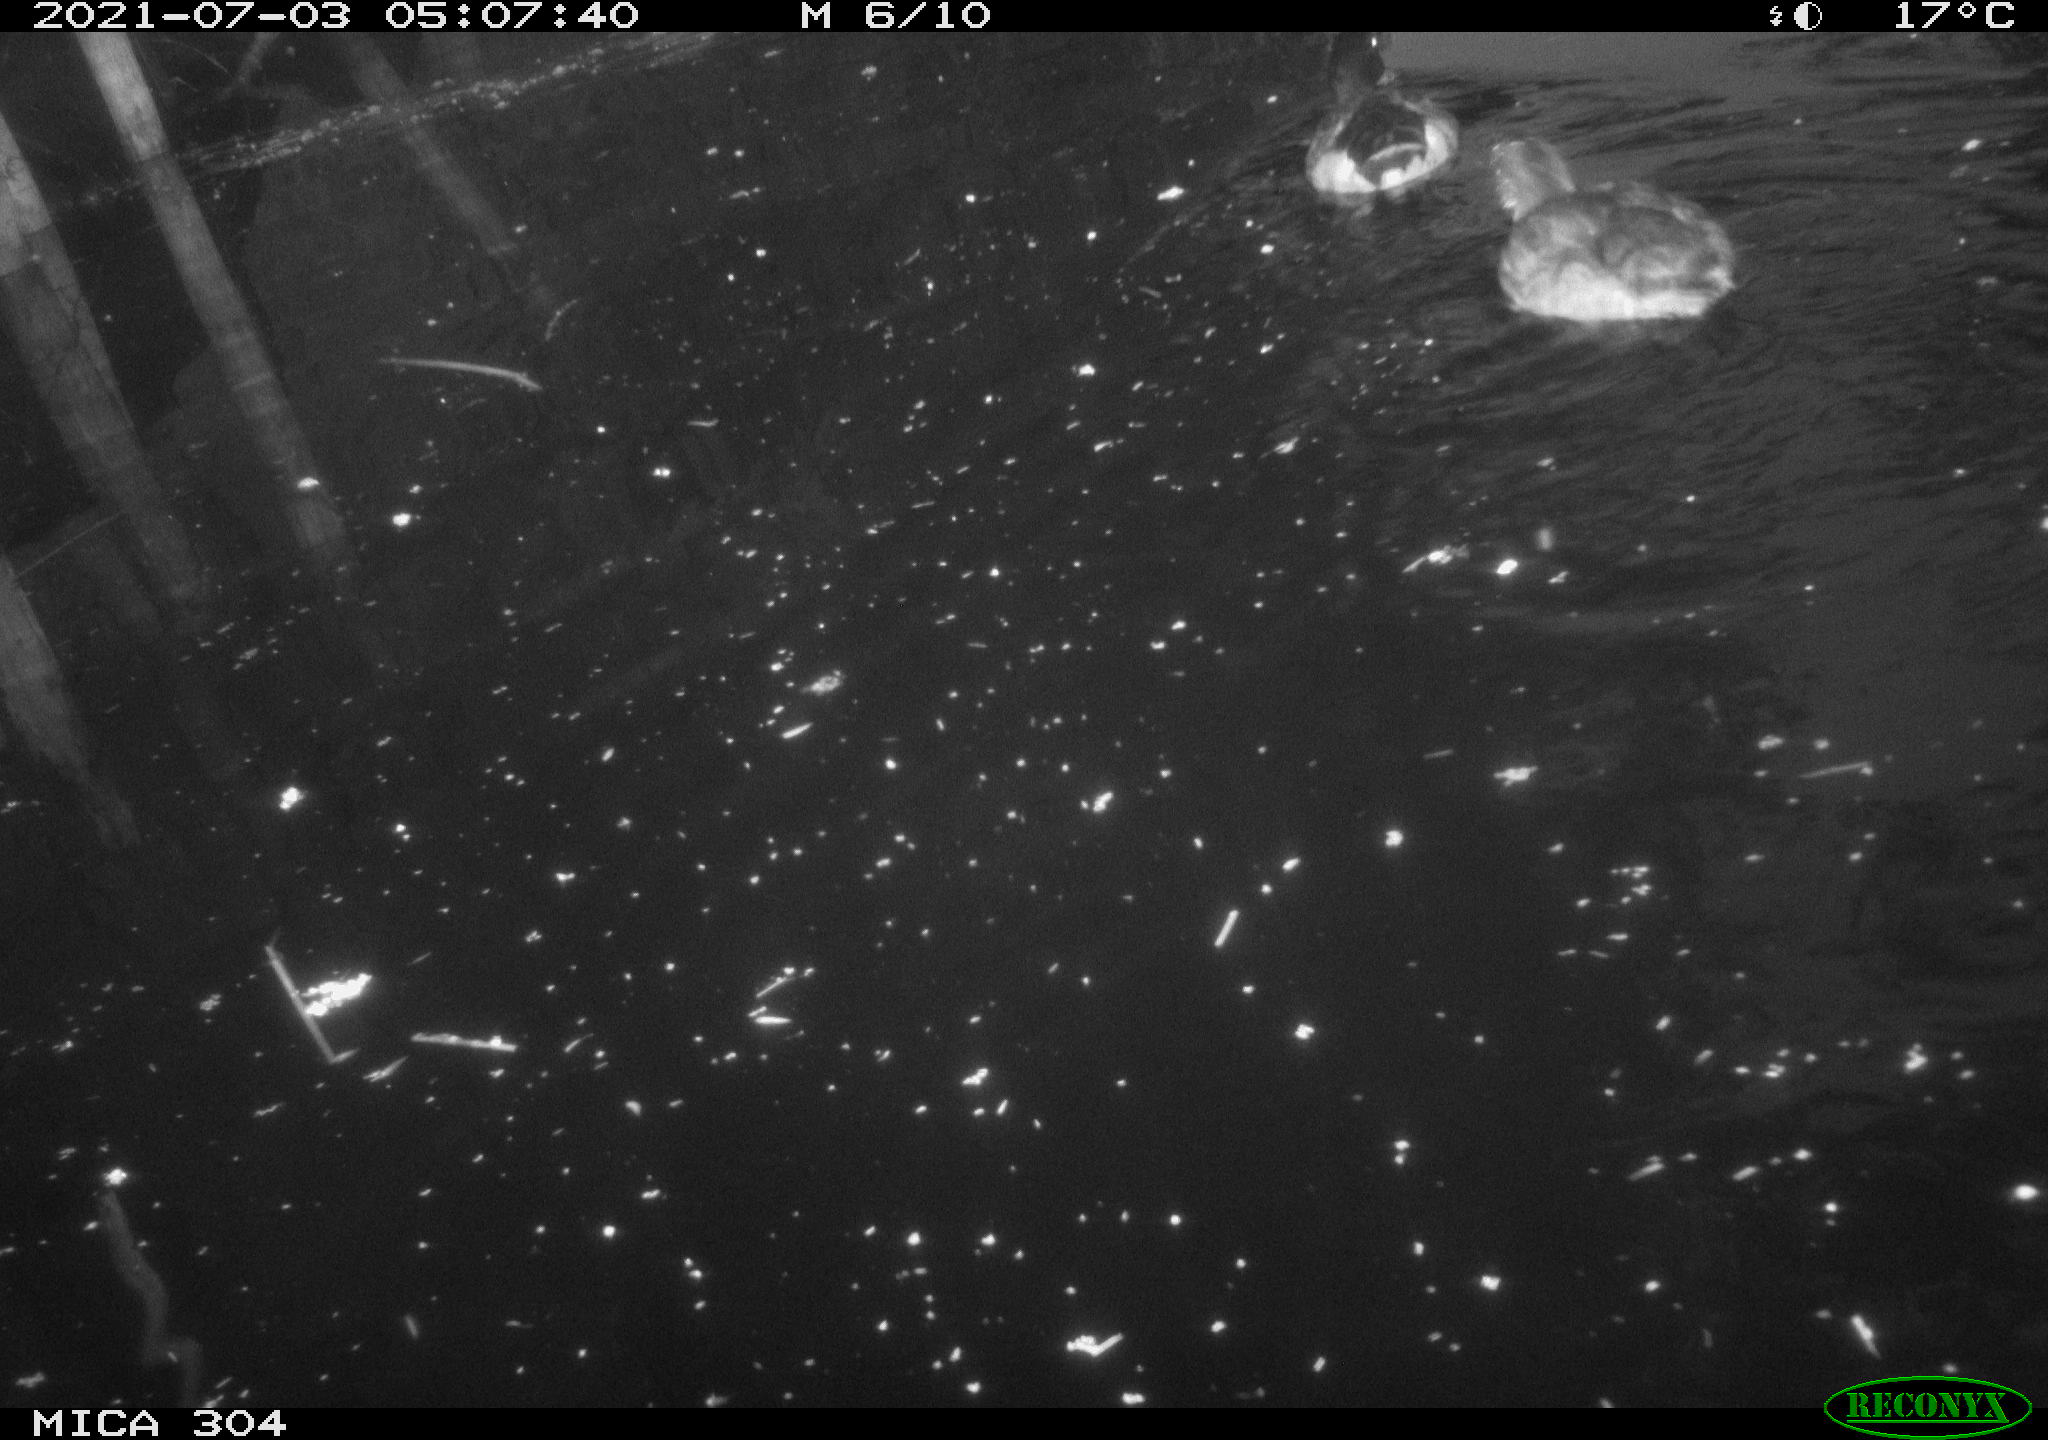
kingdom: Animalia
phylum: Chordata
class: Aves
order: Anseriformes
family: Anatidae
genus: Anas
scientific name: Anas platyrhynchos
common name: Mallard
